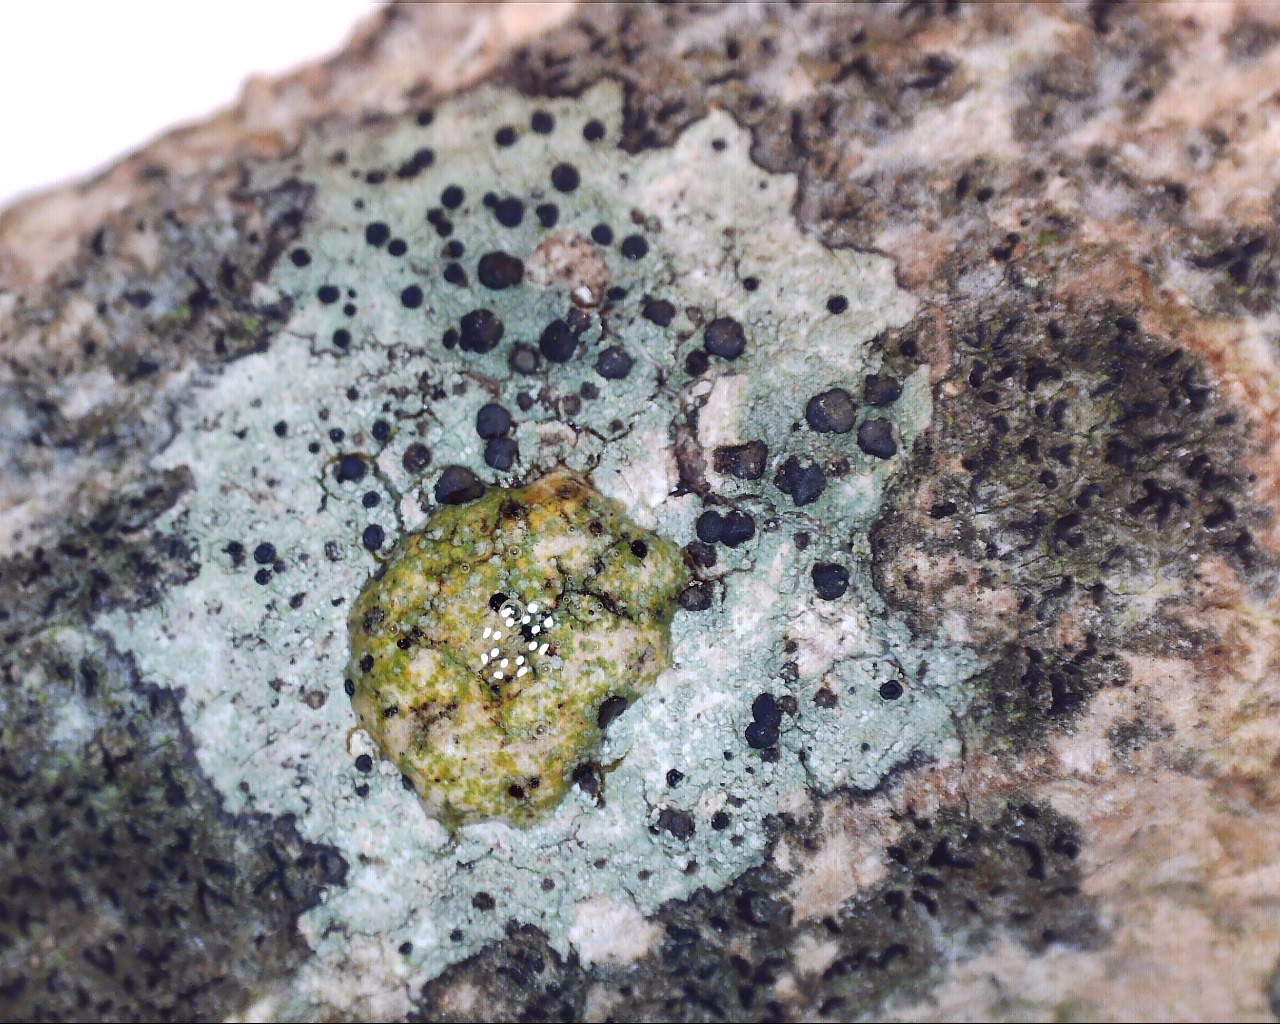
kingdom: Fungi
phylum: Ascomycota
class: Lecanoromycetes
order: Lecanorales
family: Lecanoraceae
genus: Lecidella
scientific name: Lecidella elaeochroma
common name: grågrøn skivelav
